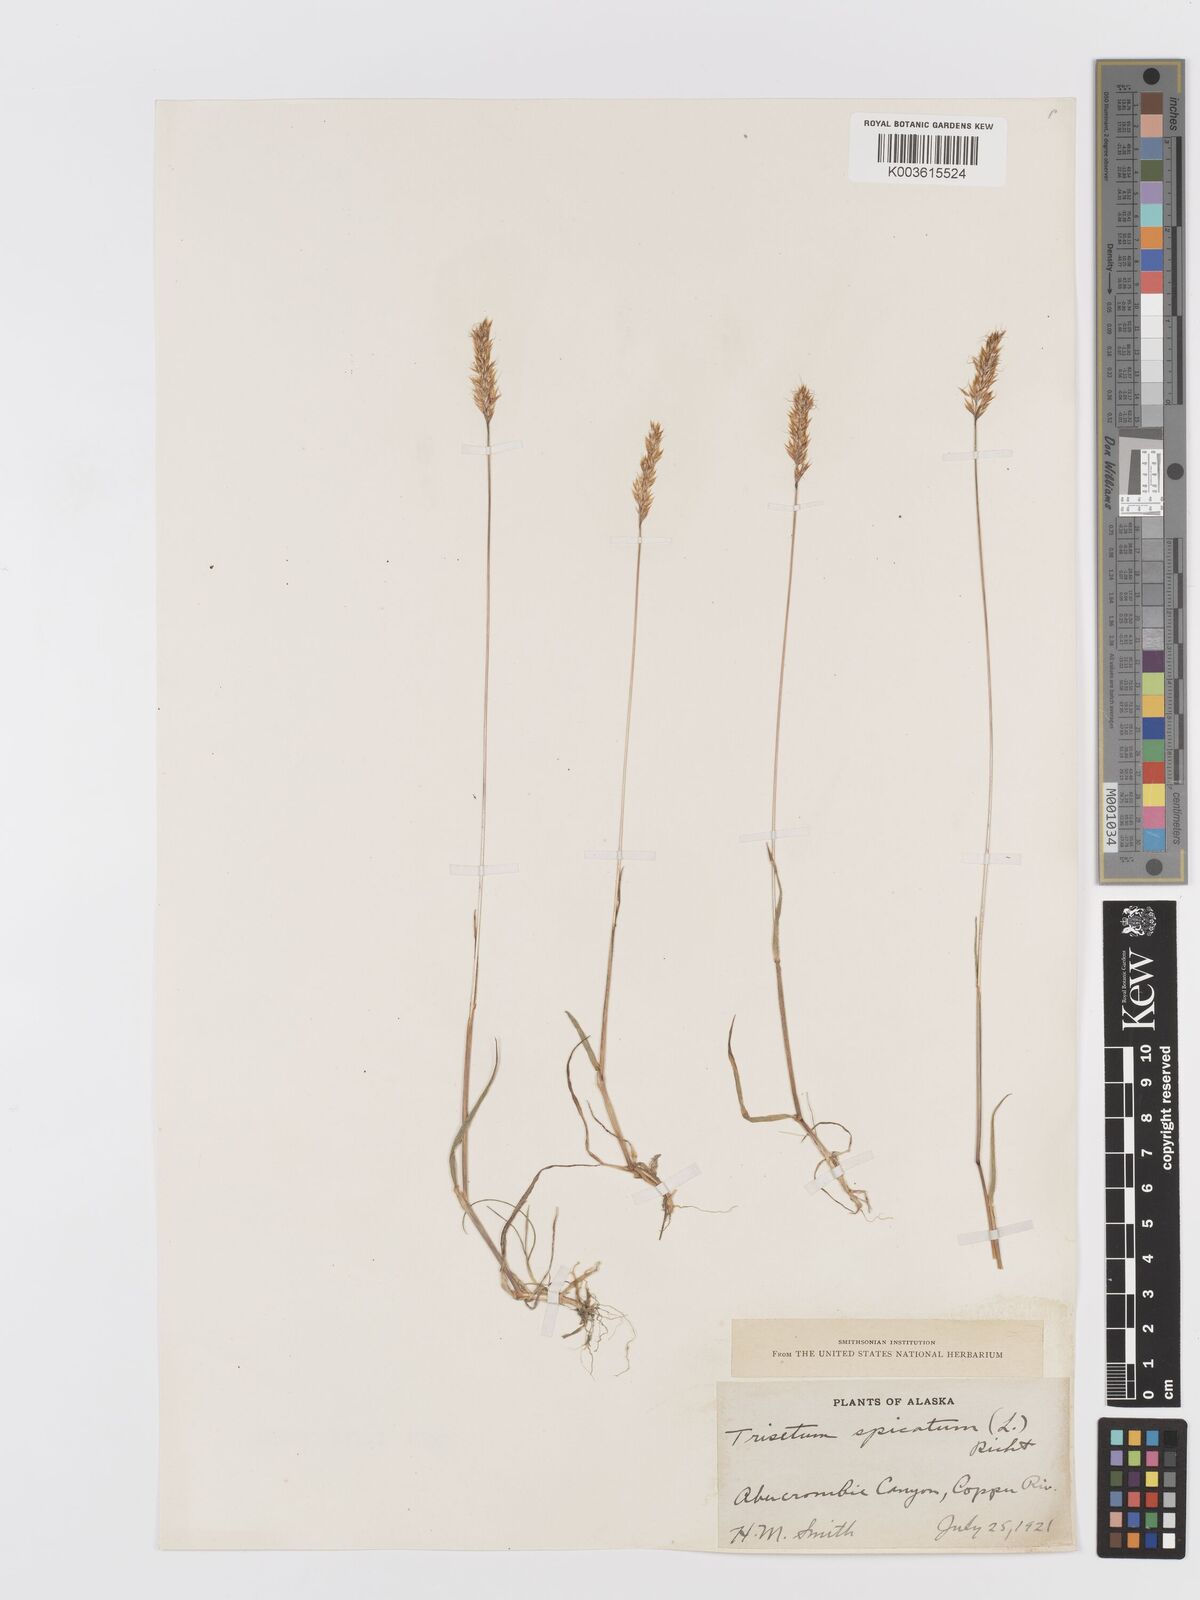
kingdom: Plantae
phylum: Tracheophyta
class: Liliopsida
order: Poales
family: Poaceae
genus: Koeleria
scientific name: Koeleria spicata
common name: Mountain trisetum
